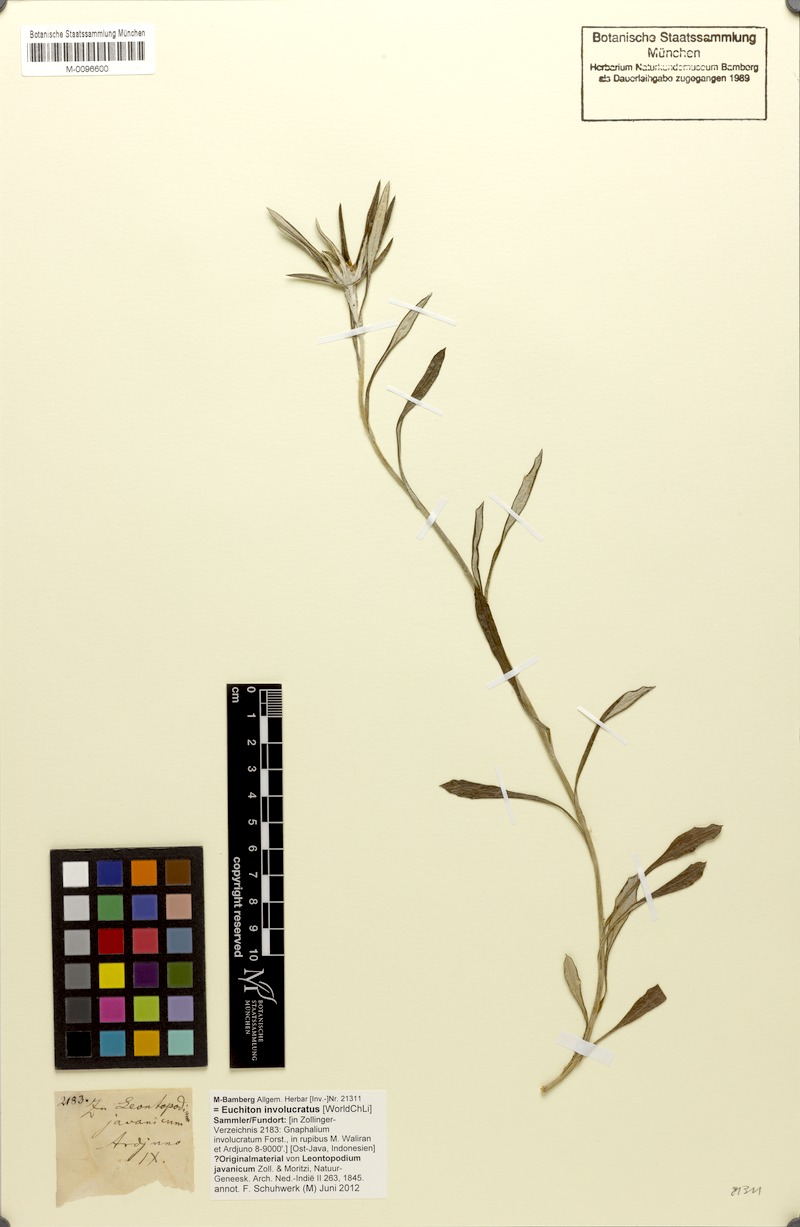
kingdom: Plantae
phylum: Tracheophyta
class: Magnoliopsida
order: Asterales
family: Asteraceae
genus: Euchiton
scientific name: Euchiton involucratus
